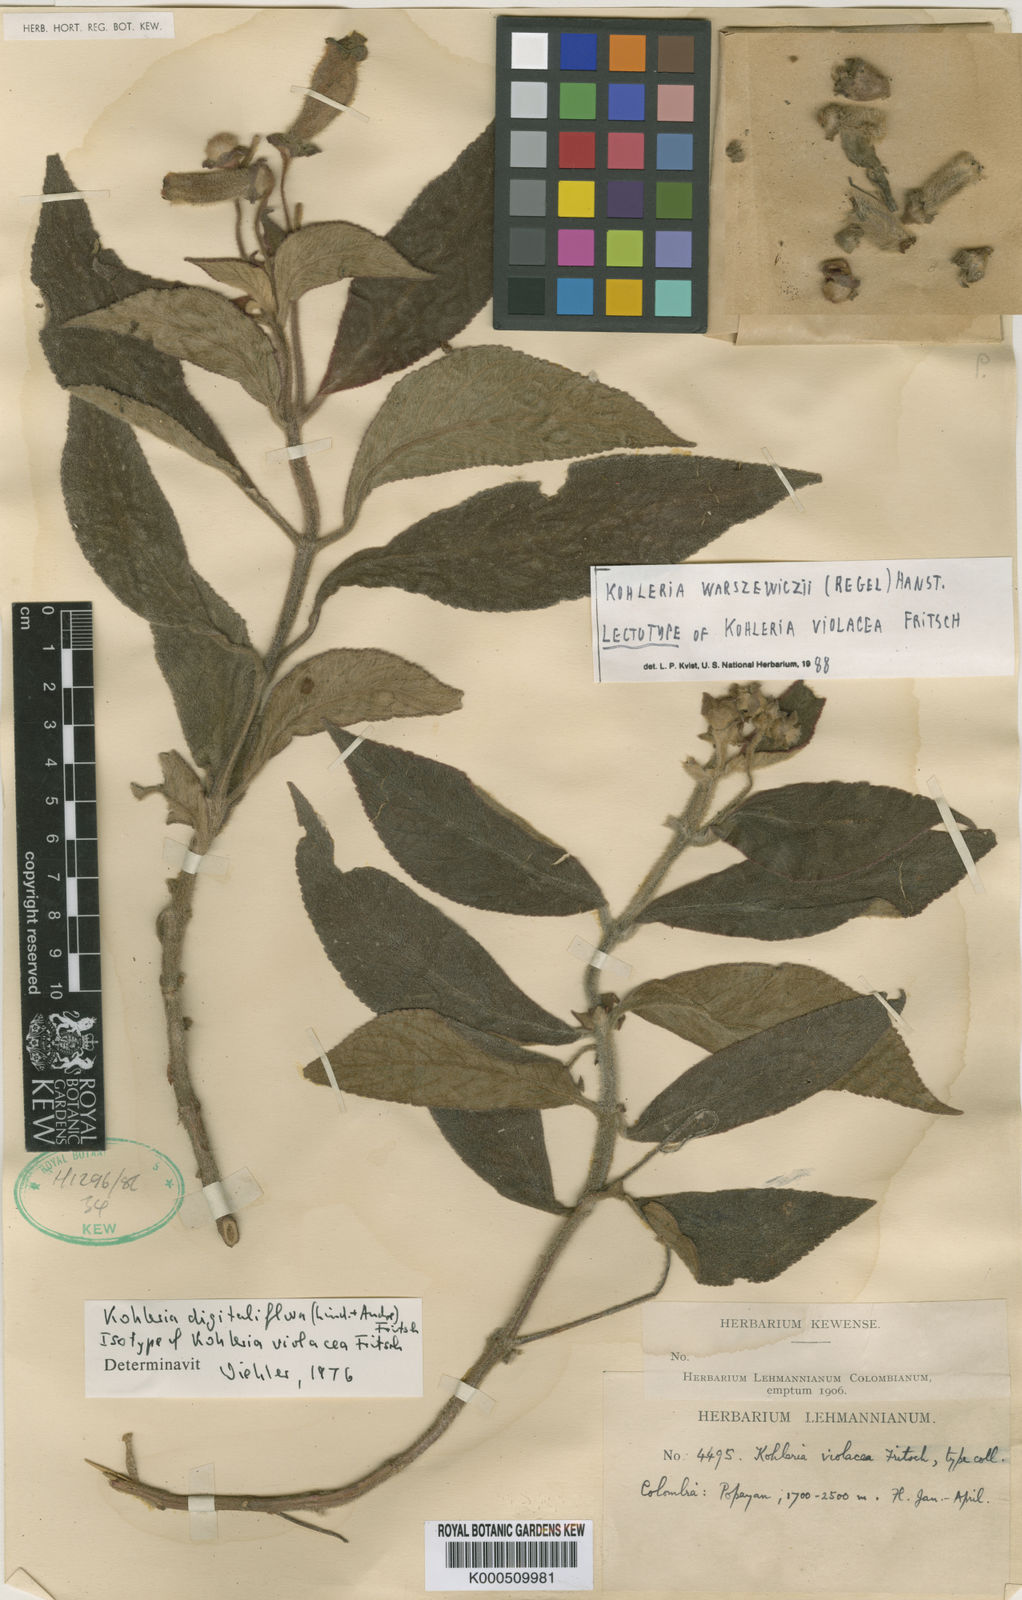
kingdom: Plantae
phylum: Tracheophyta
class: Magnoliopsida
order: Lamiales
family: Gesneriaceae
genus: Kohleria
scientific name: Kohleria warszewiczii
